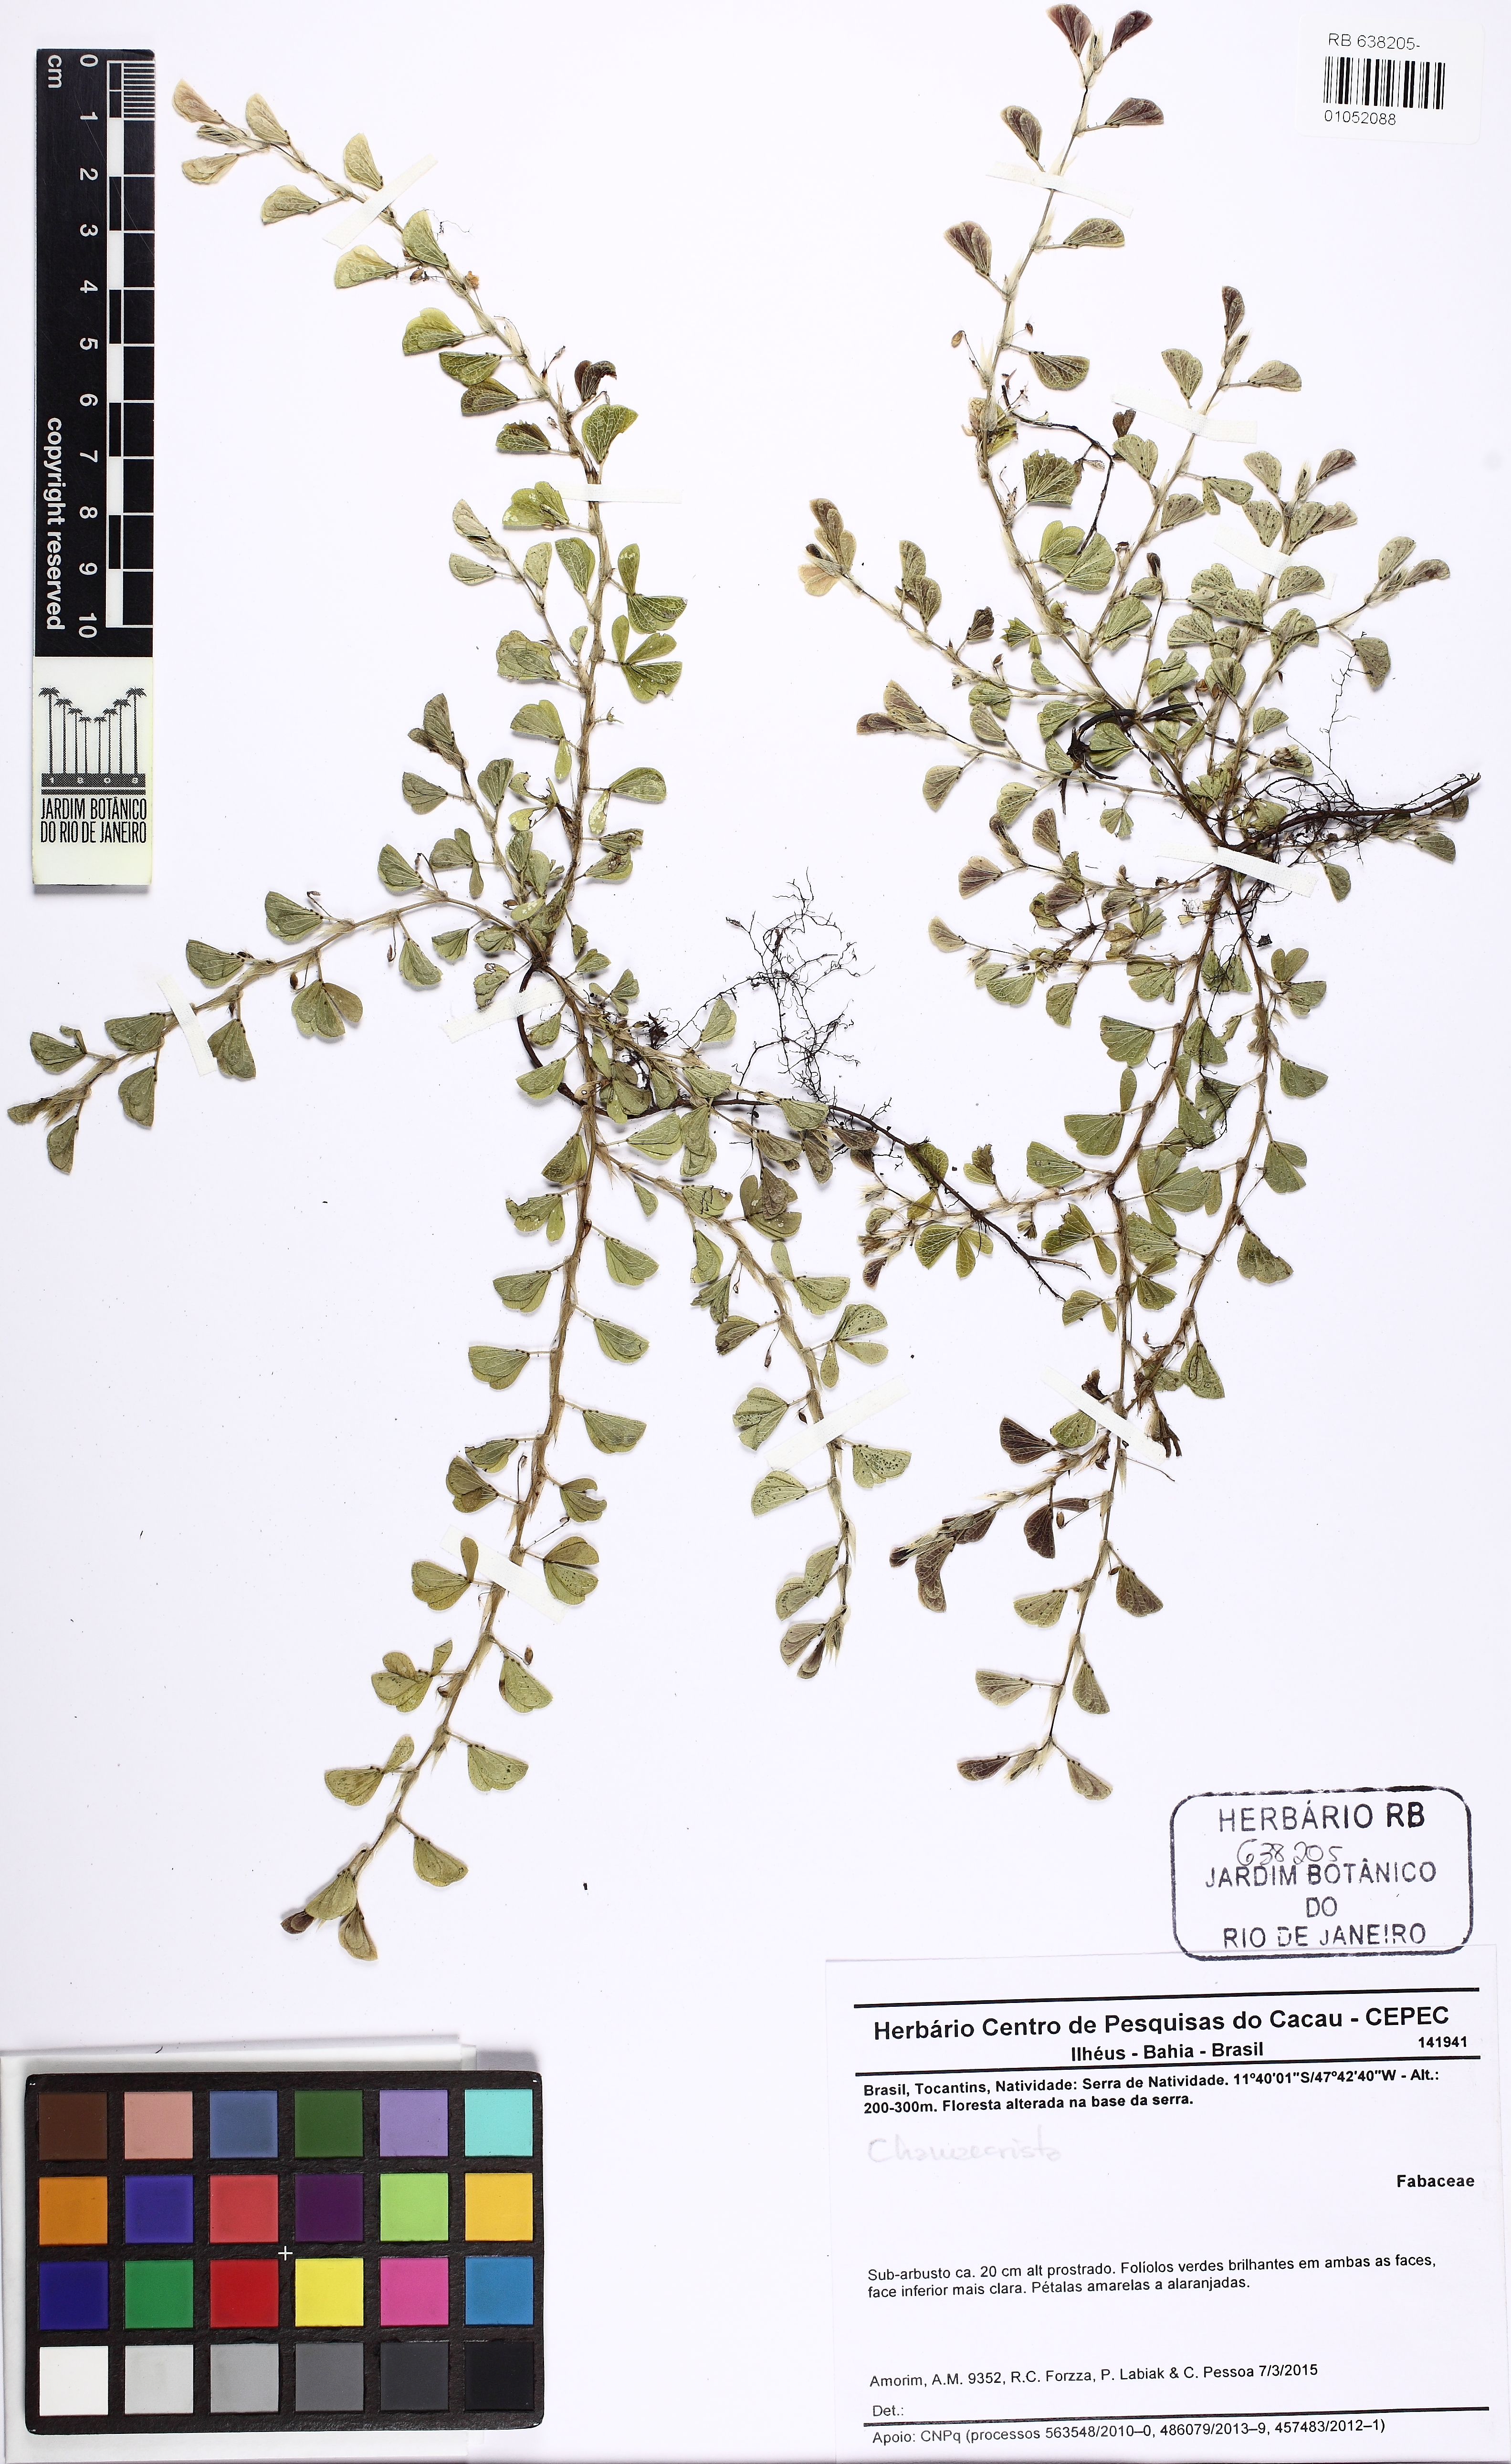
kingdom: Plantae
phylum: Tracheophyta
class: Magnoliopsida
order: Fabales
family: Fabaceae
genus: Chamaecrista
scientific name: Chamaecrista kunthiana
